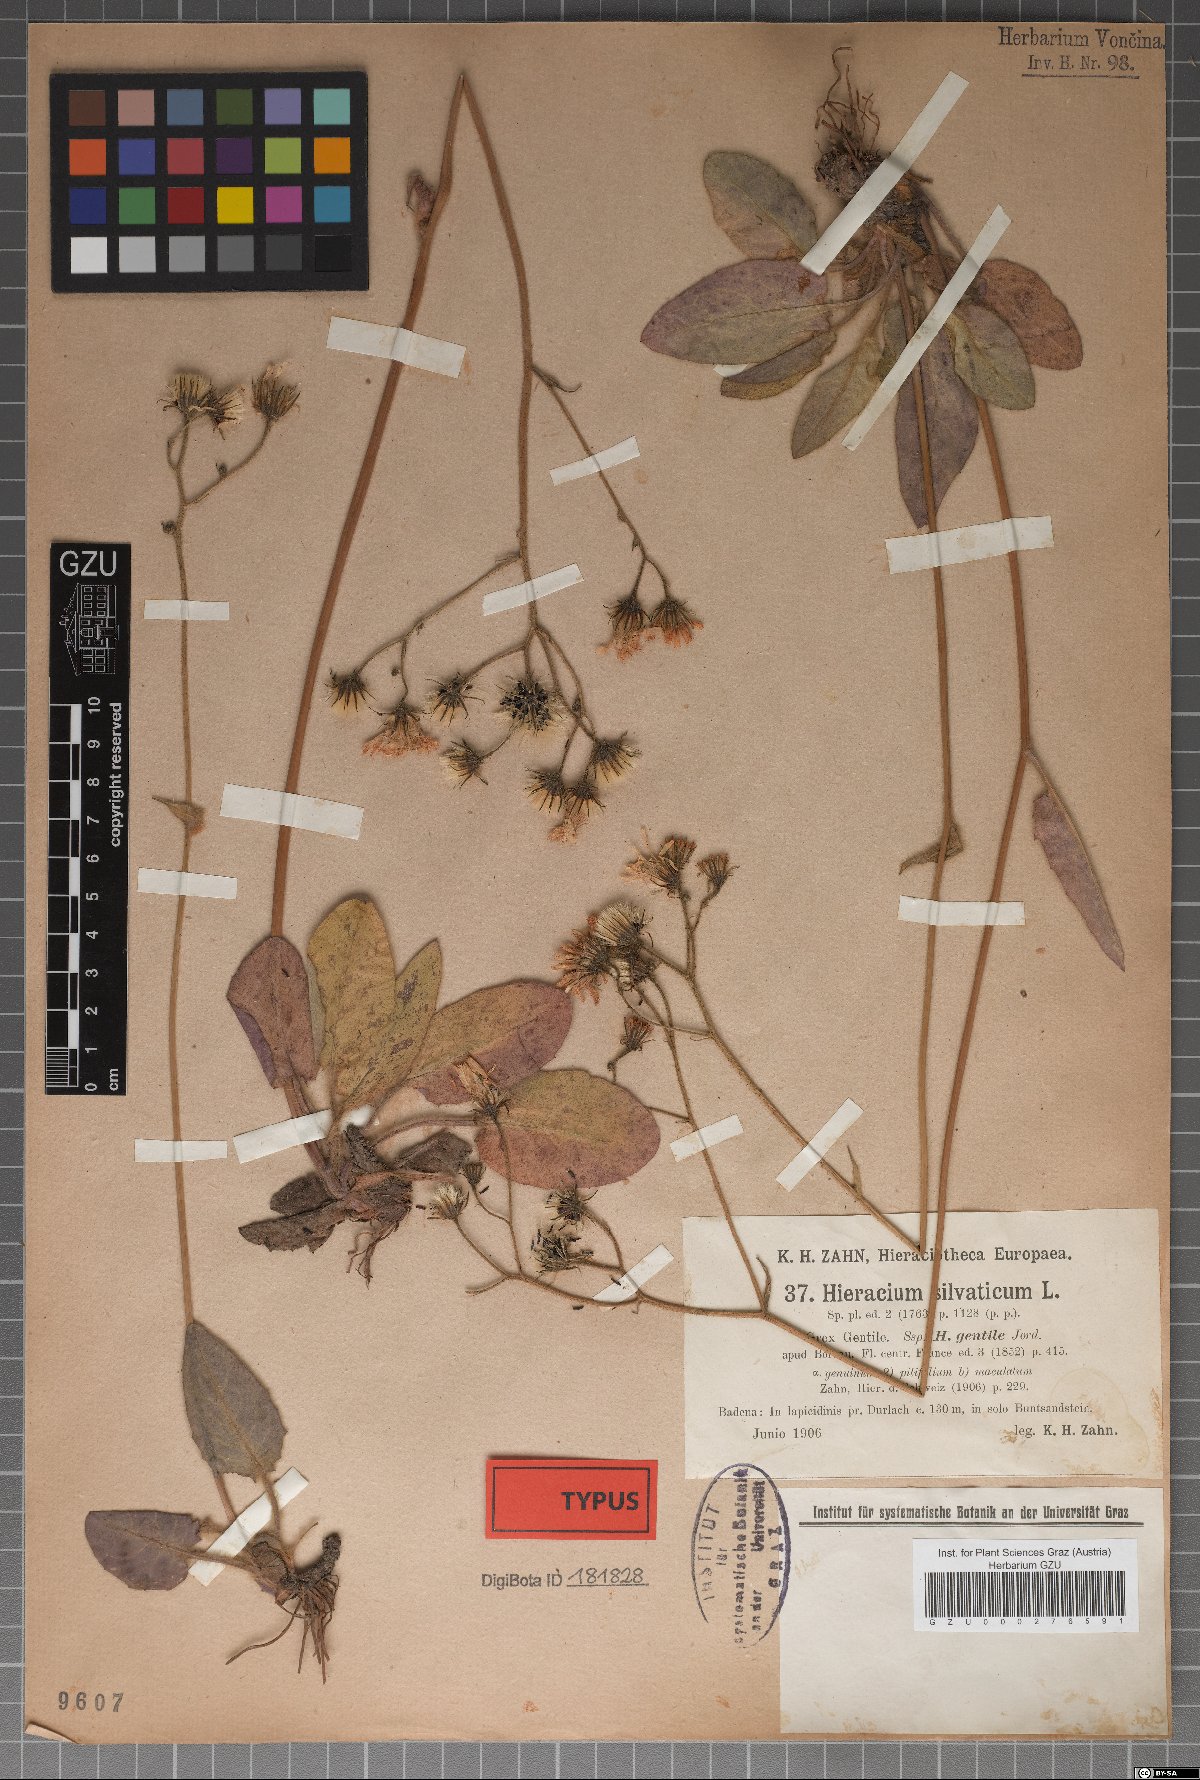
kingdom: Plantae
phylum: Tracheophyta
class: Magnoliopsida
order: Asterales
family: Asteraceae
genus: Hieracium
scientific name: Hieracium sylvaticum
